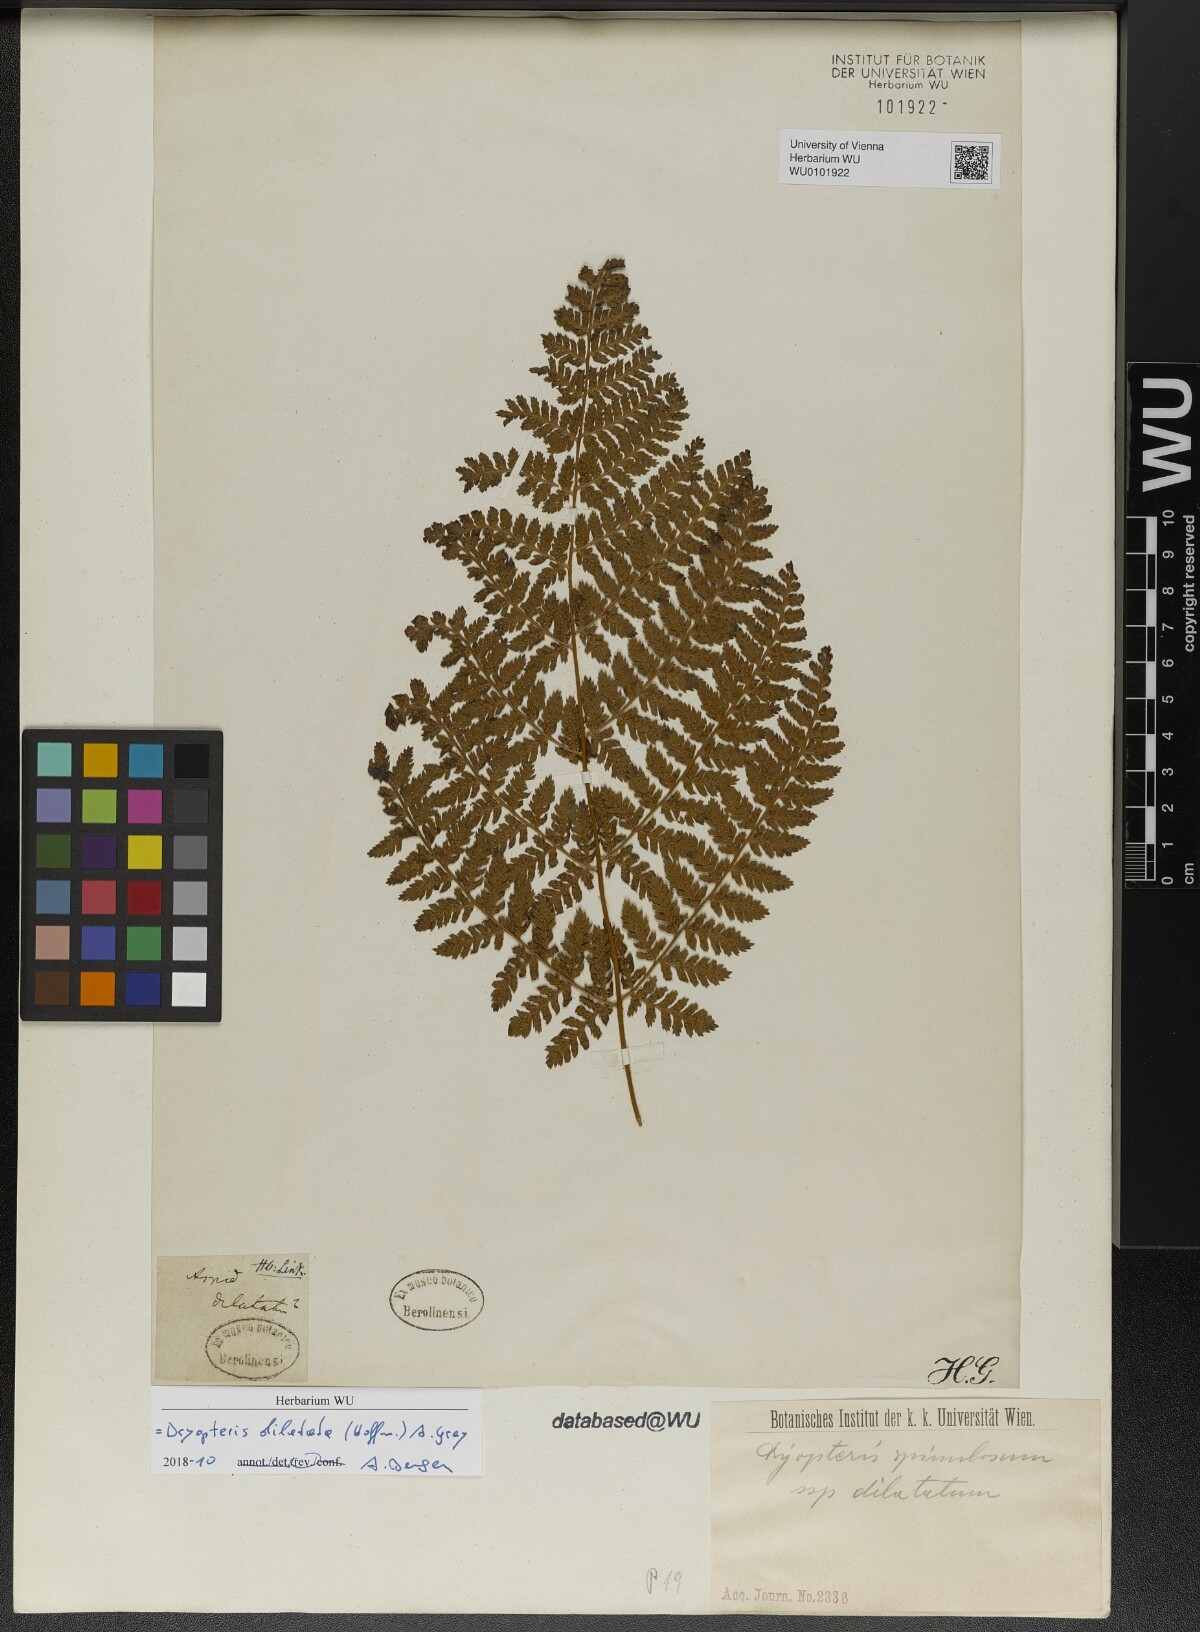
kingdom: Plantae
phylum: Tracheophyta
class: Polypodiopsida
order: Polypodiales
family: Dryopteridaceae
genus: Dryopteris
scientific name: Dryopteris dilatata
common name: Broad buckler-fern
